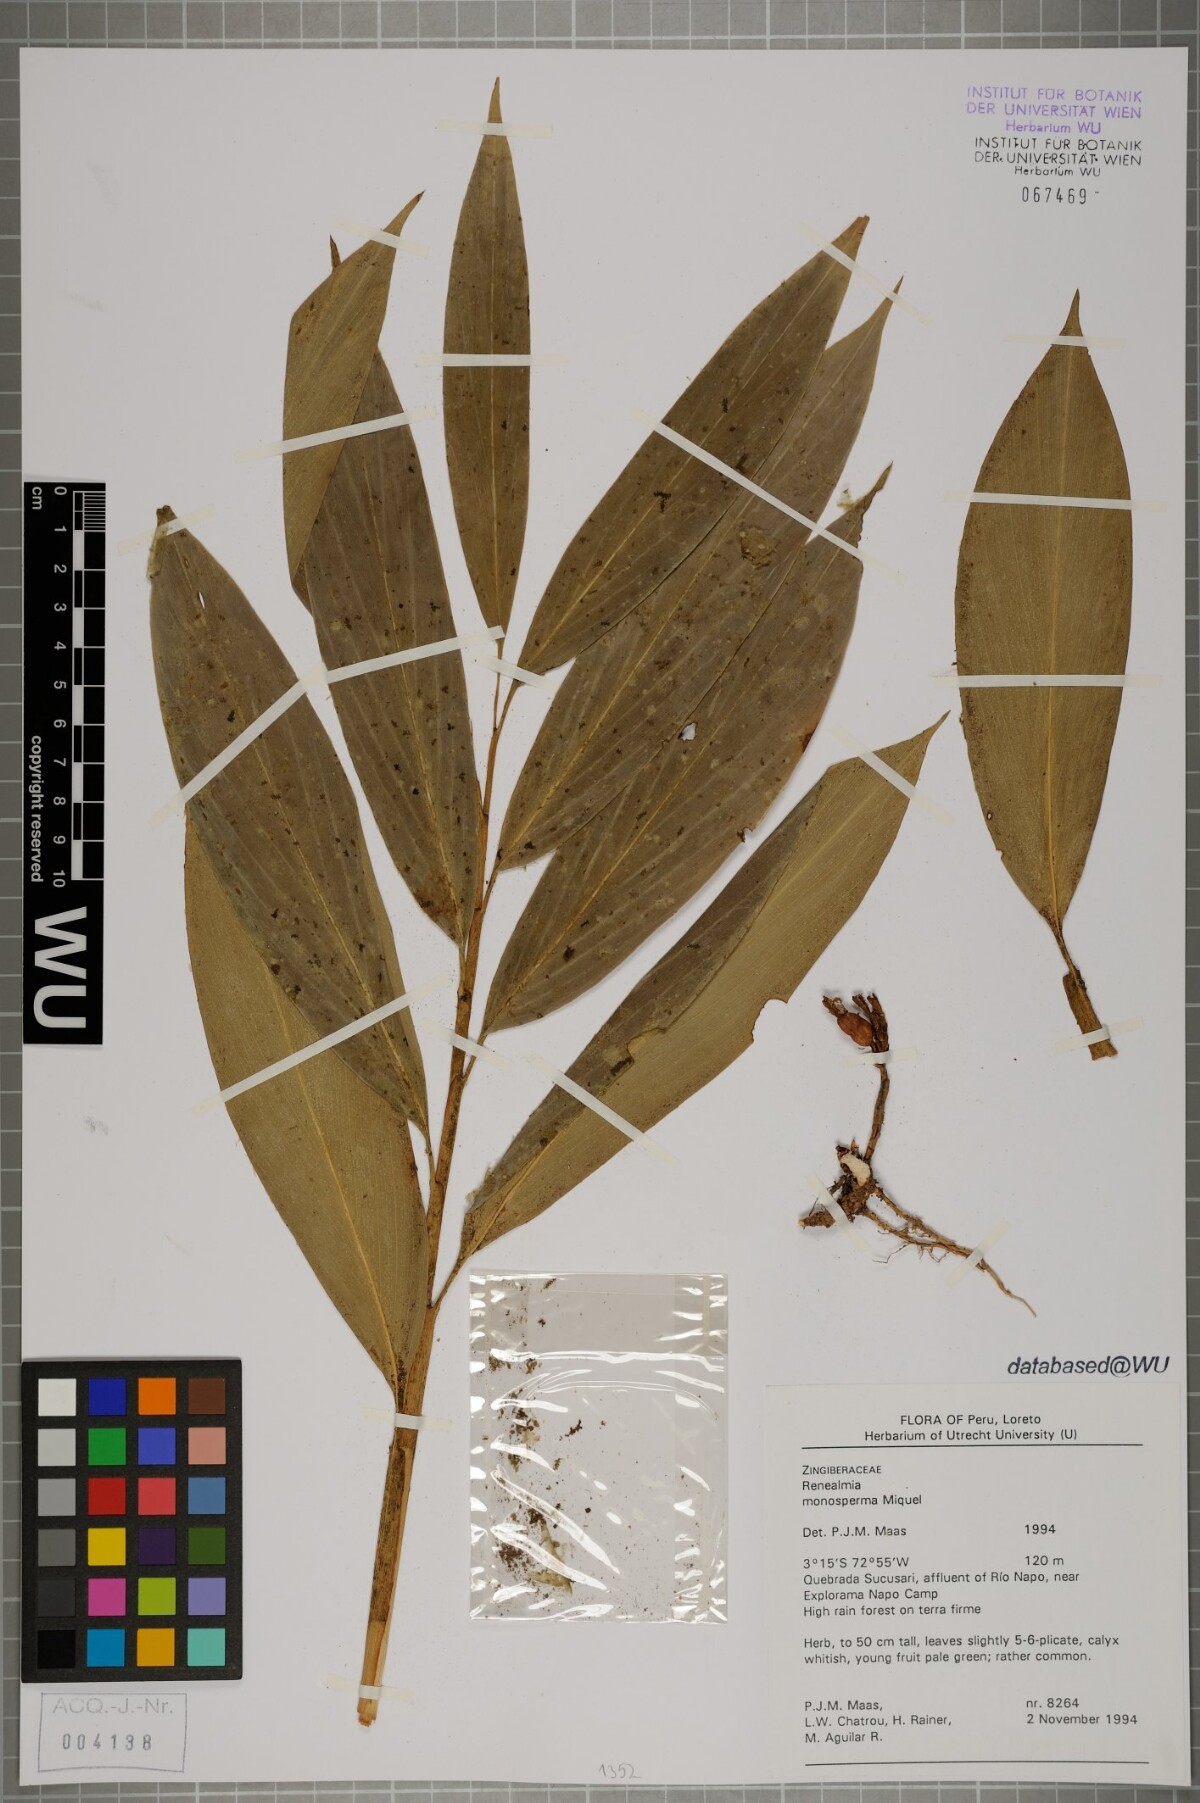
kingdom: Plantae
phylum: Tracheophyta
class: Liliopsida
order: Zingiberales
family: Zingiberaceae
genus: Renealmia
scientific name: Renealmia monosperma
